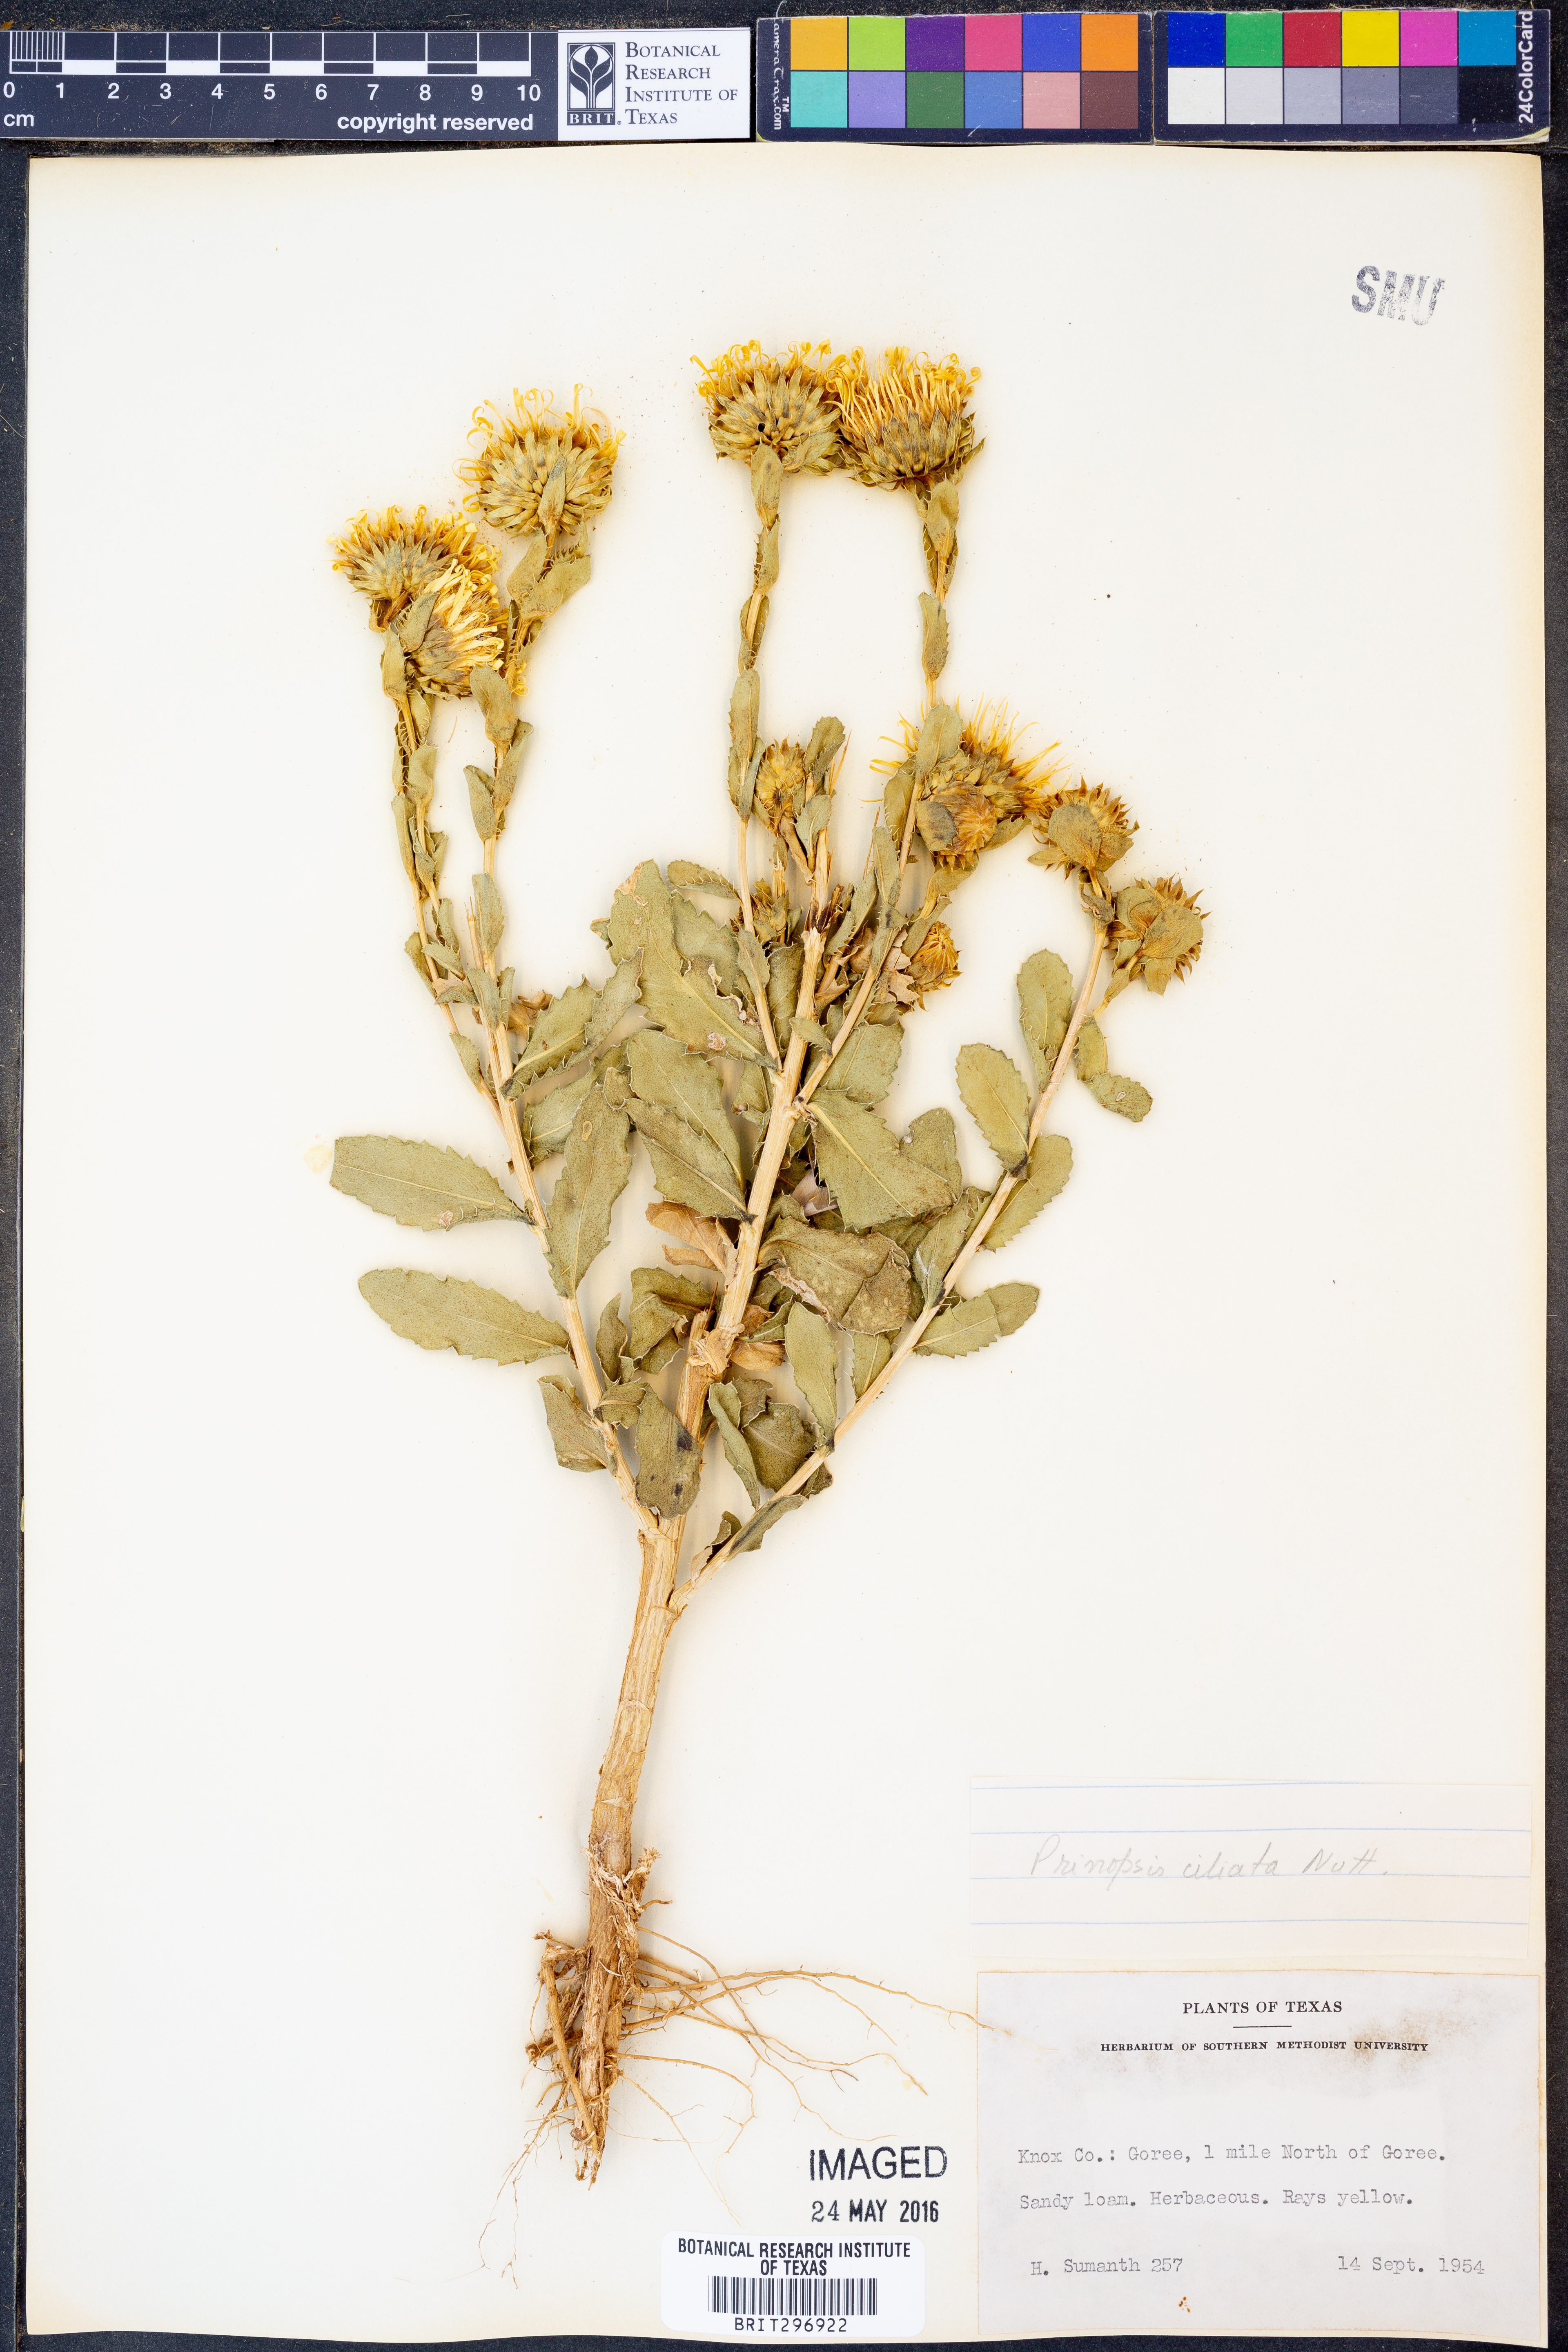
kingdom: Plantae
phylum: Tracheophyta
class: Magnoliopsida
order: Asterales
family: Asteraceae
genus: Grindelia
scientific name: Grindelia ciliata
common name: Goldenweed
